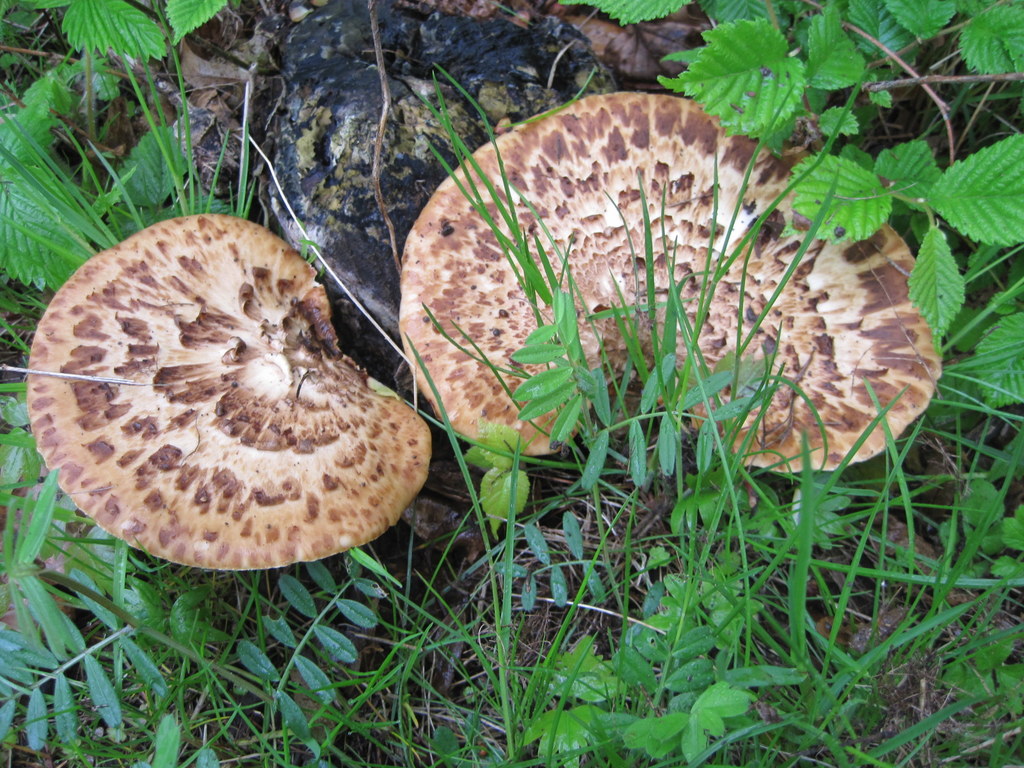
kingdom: Fungi
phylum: Basidiomycota
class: Agaricomycetes
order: Polyporales
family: Polyporaceae
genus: Cerioporus
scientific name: Cerioporus squamosus
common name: skællet stilkporesvamp
